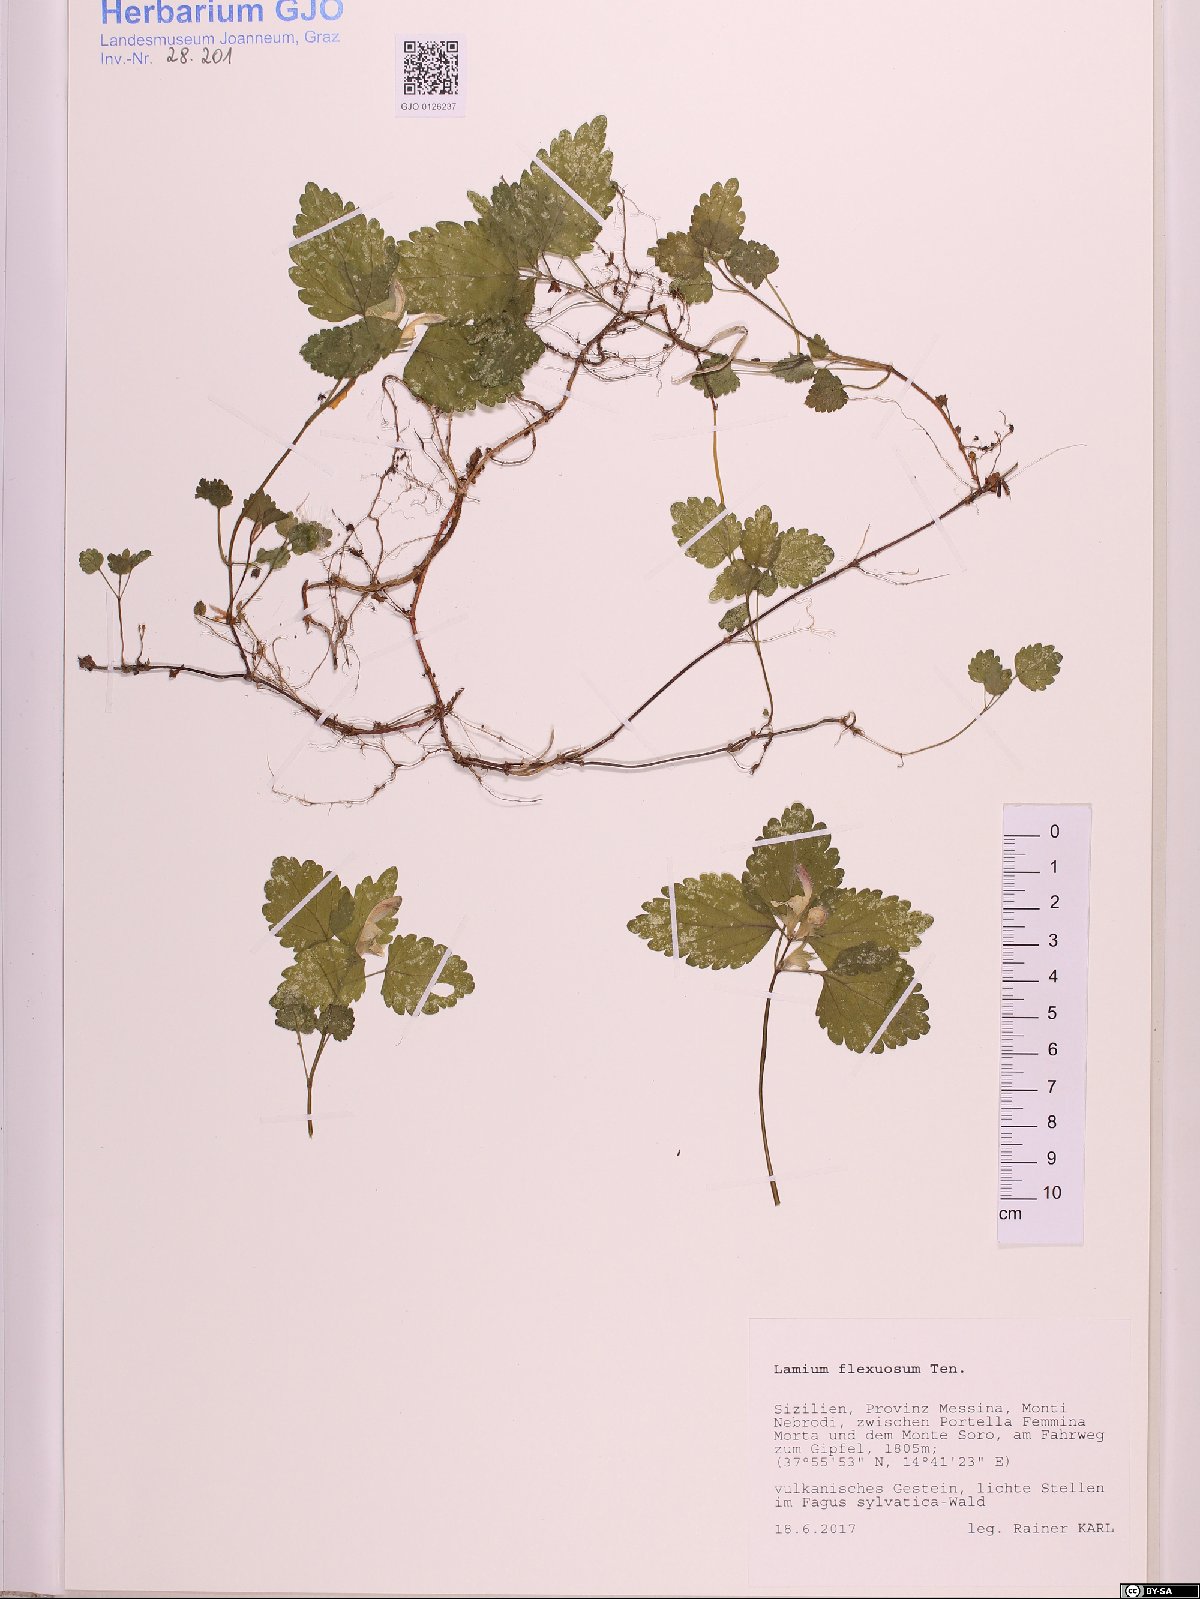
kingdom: Plantae
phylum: Tracheophyta
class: Magnoliopsida
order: Lamiales
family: Lamiaceae
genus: Lamium
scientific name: Lamium flexuosum
